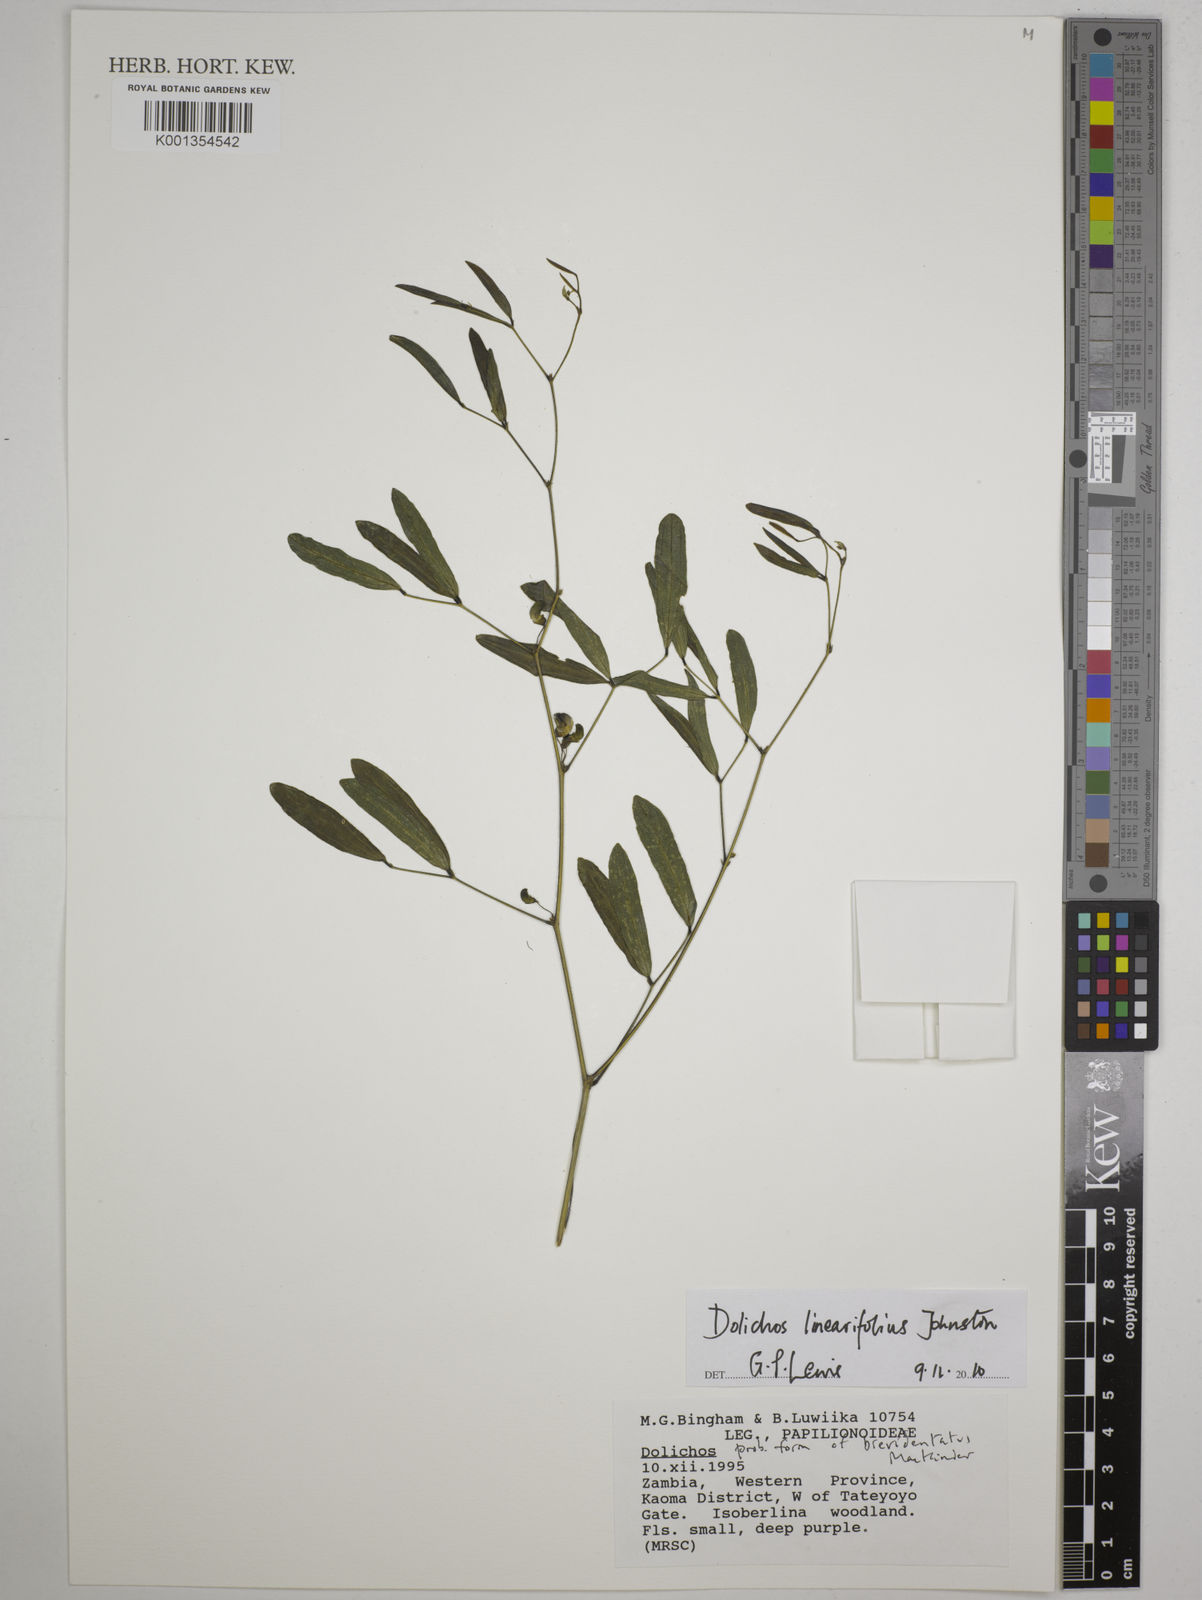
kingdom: Plantae
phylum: Tracheophyta
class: Magnoliopsida
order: Fabales
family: Fabaceae
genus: Dolichos
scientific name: Dolichos linearifolius
